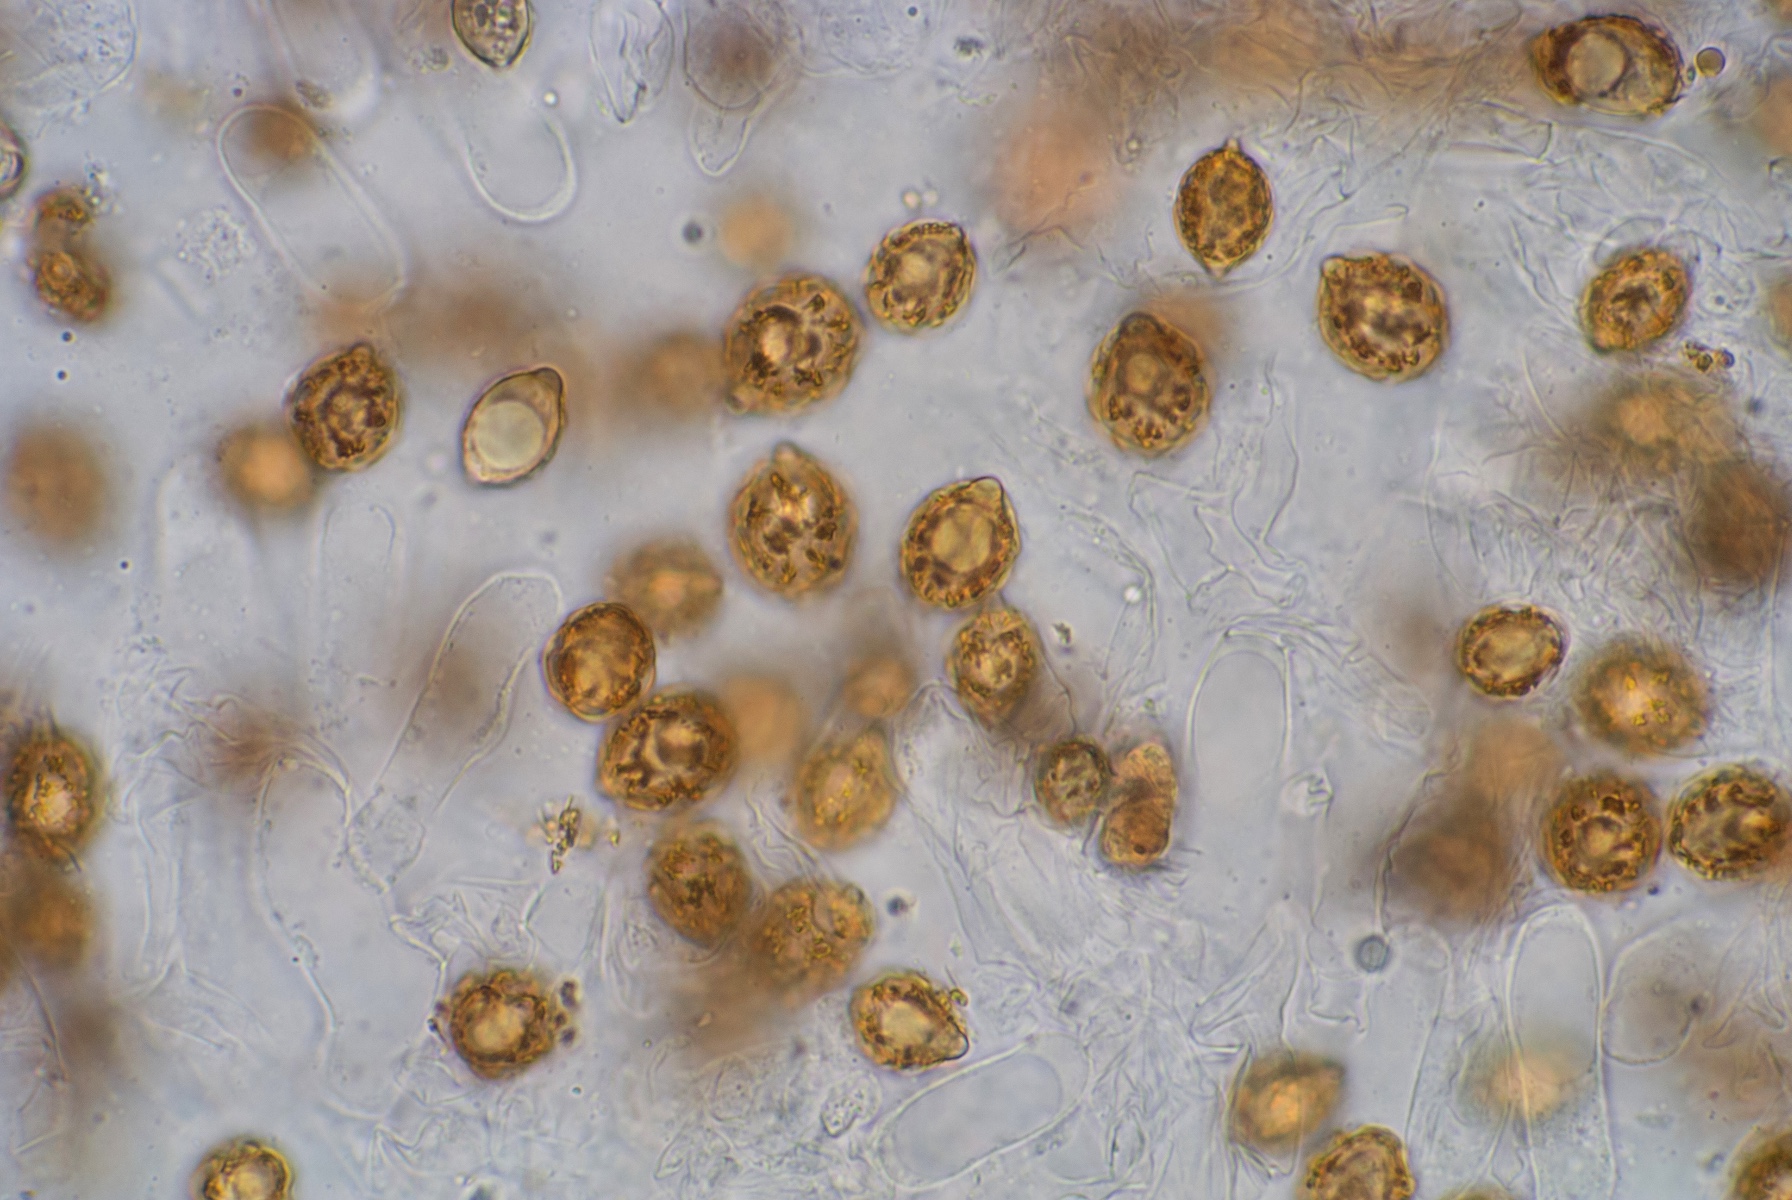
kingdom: Fungi
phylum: Basidiomycota
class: Agaricomycetes
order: Agaricales
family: Hymenogastraceae
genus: Hymenogaster
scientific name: Hymenogaster
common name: knoldtrøffel
